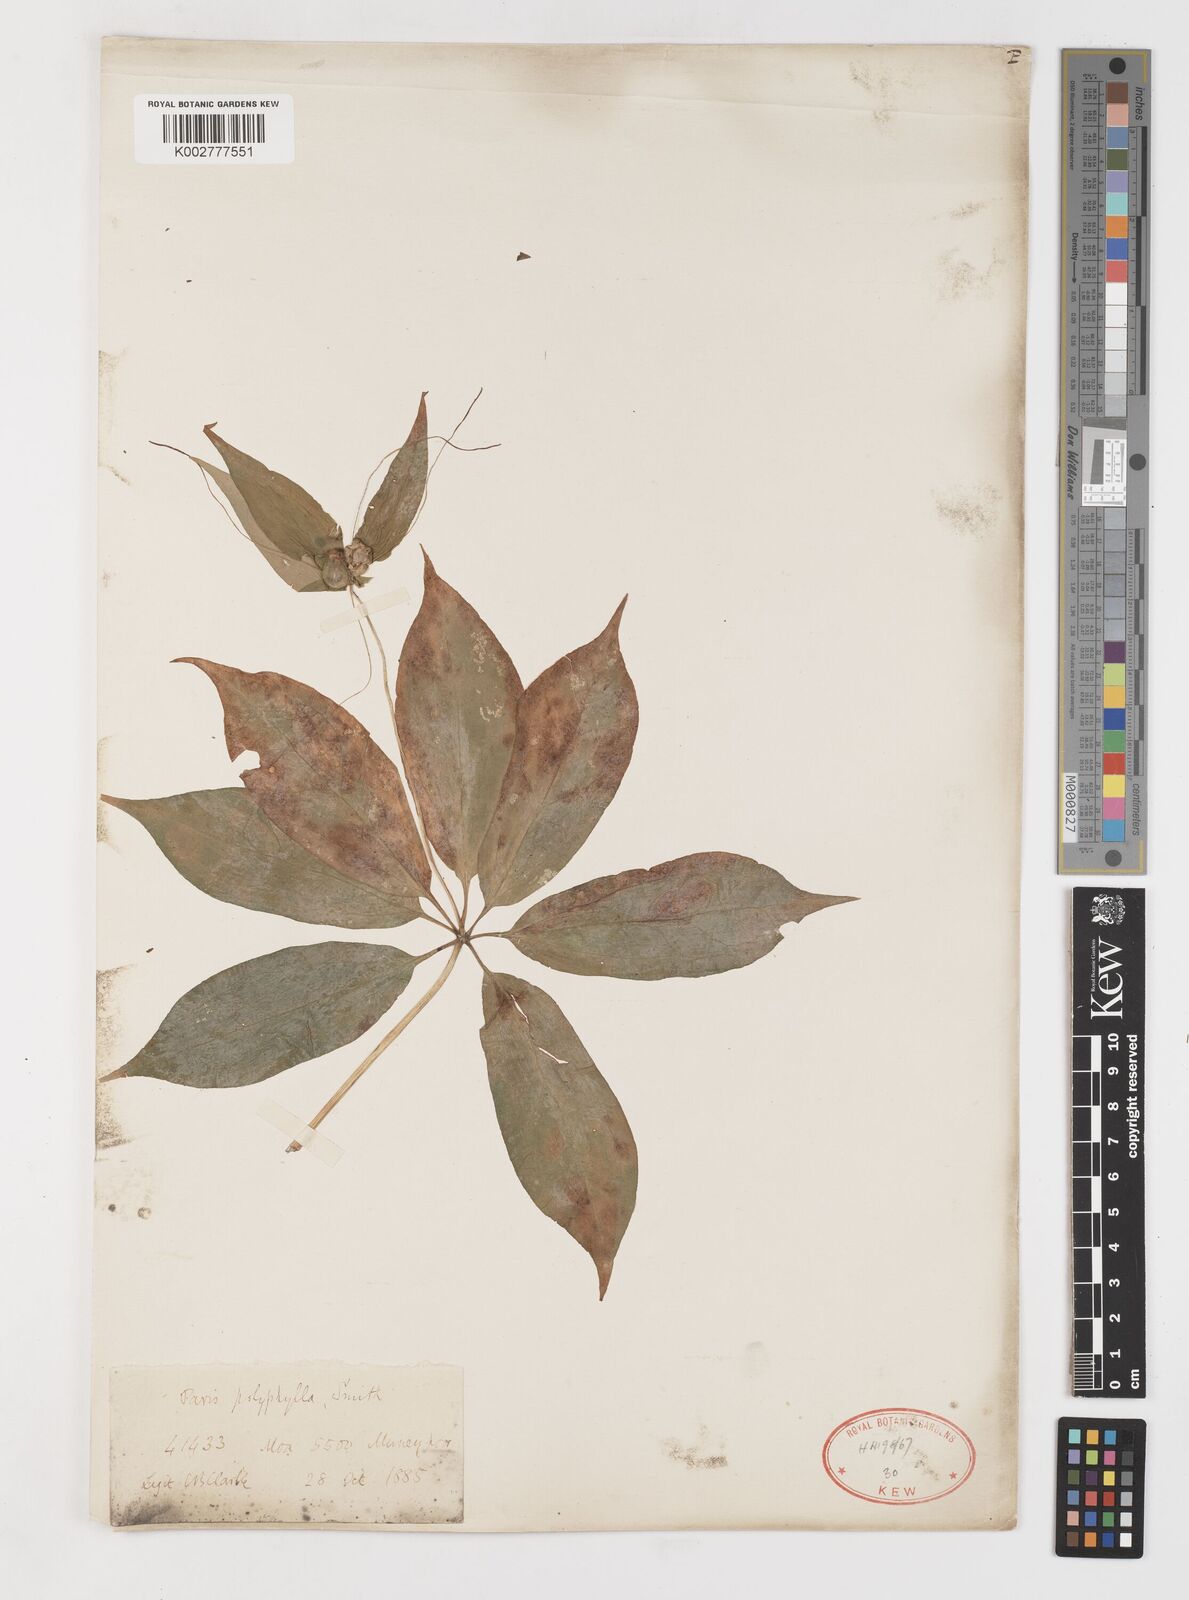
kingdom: Plantae
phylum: Tracheophyta
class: Liliopsida
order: Liliales
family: Melanthiaceae
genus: Paris
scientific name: Paris polyphylla
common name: Love apple
